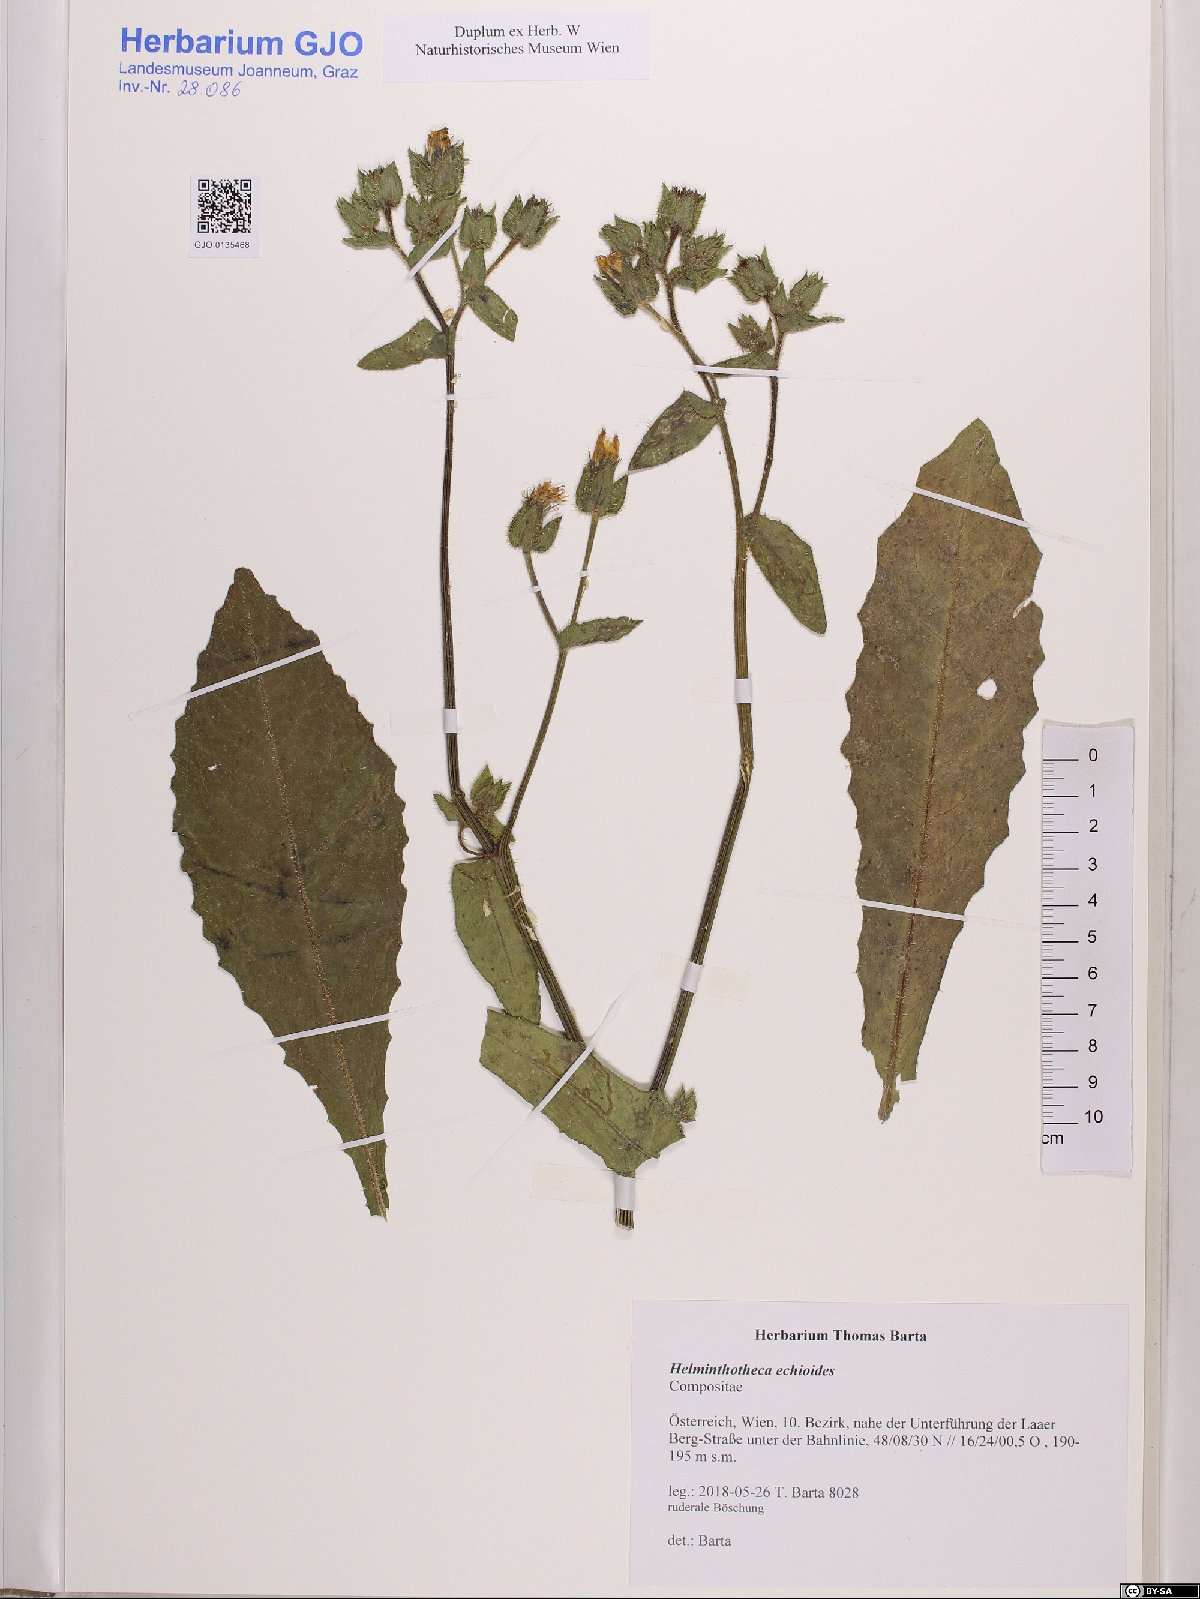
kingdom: Plantae
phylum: Tracheophyta
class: Magnoliopsida
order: Asterales
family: Asteraceae
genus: Helminthotheca
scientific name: Helminthotheca echioides
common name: Ox-tongue
